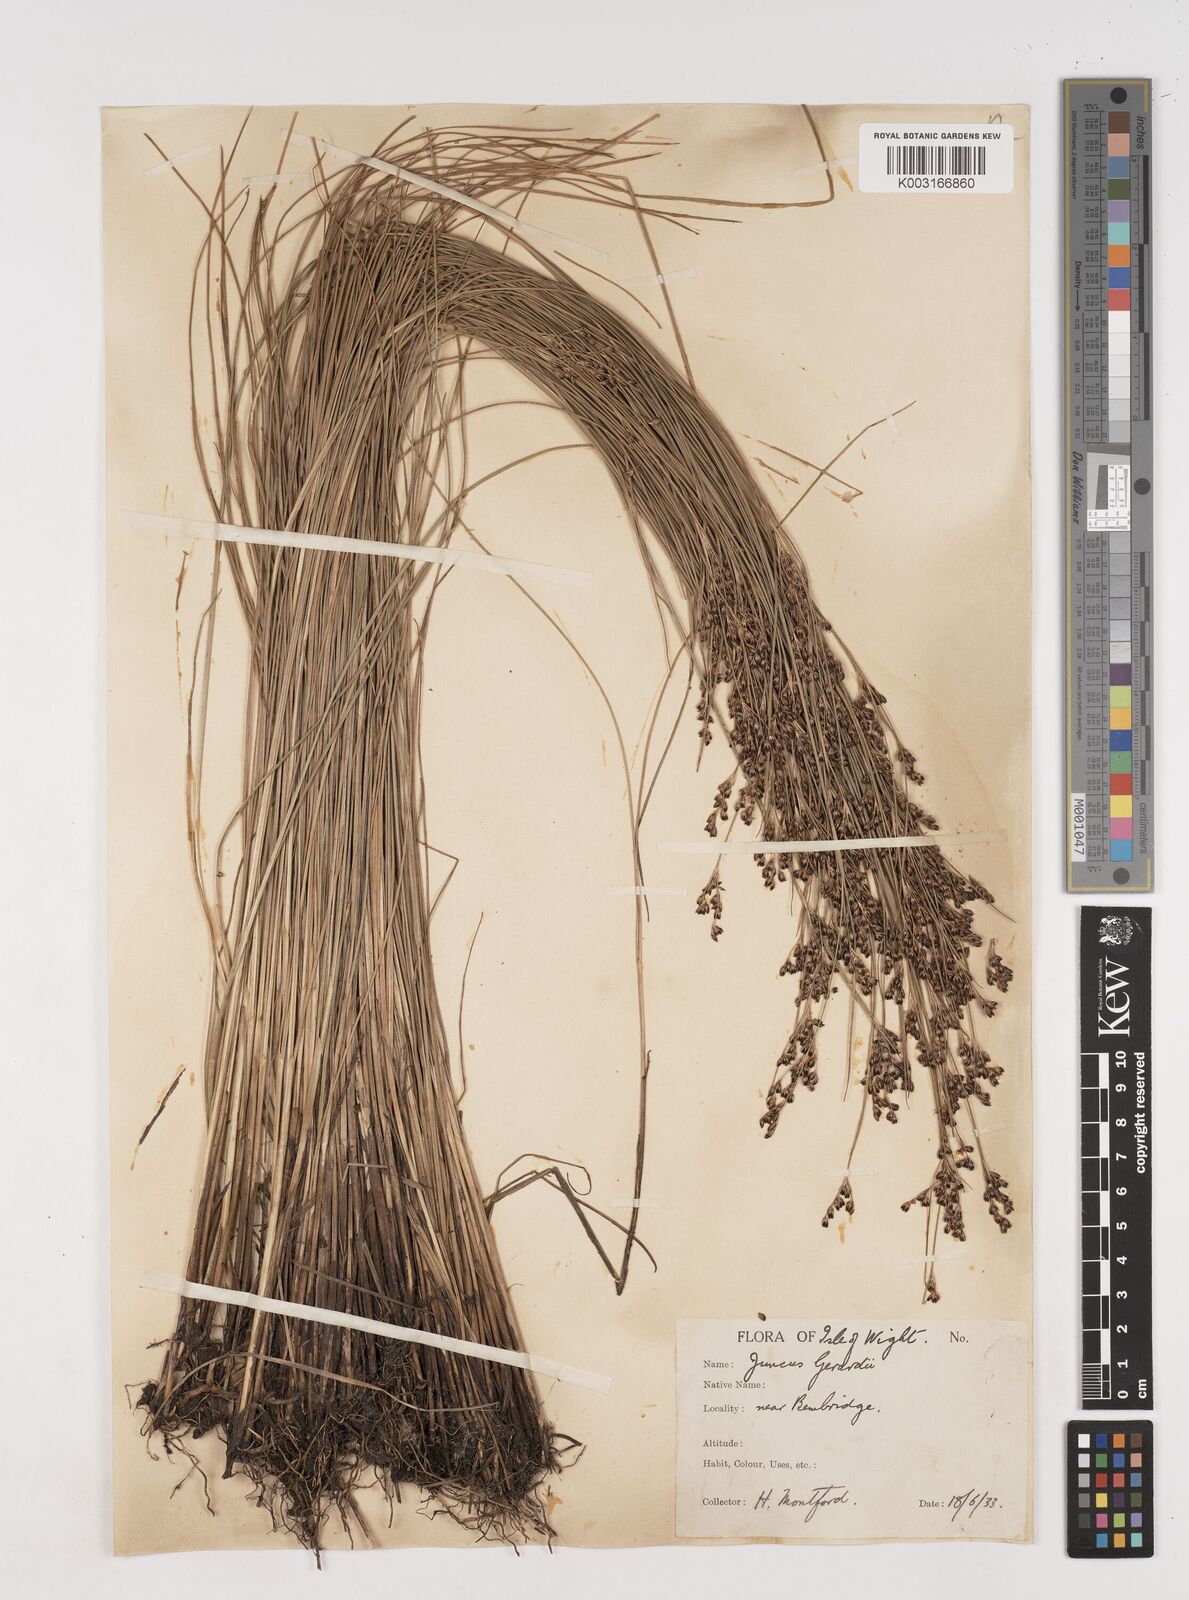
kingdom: Plantae
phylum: Tracheophyta
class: Liliopsida
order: Poales
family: Juncaceae
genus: Juncus
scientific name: Juncus gerardi
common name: Saltmarsh rush
